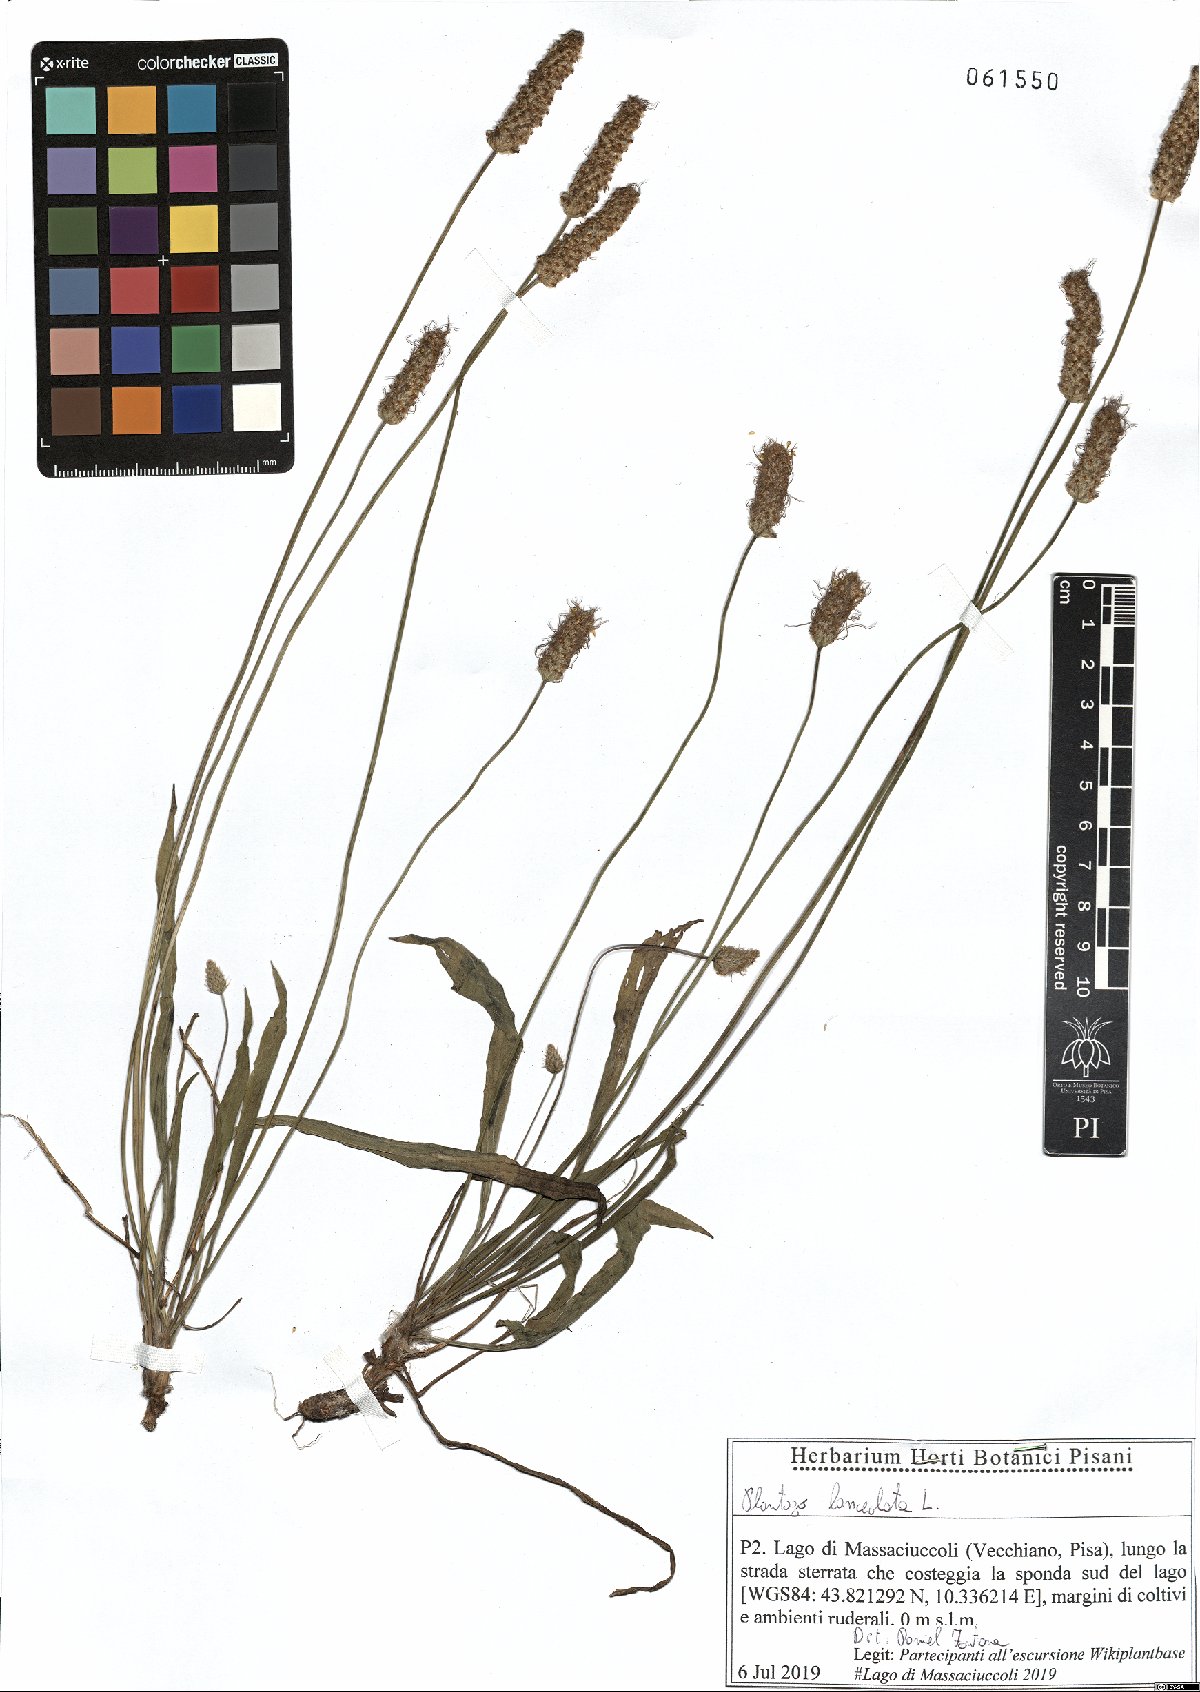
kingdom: Plantae
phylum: Tracheophyta
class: Magnoliopsida
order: Lamiales
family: Plantaginaceae
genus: Plantago
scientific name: Plantago lanceolata
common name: Ribwort plantain
